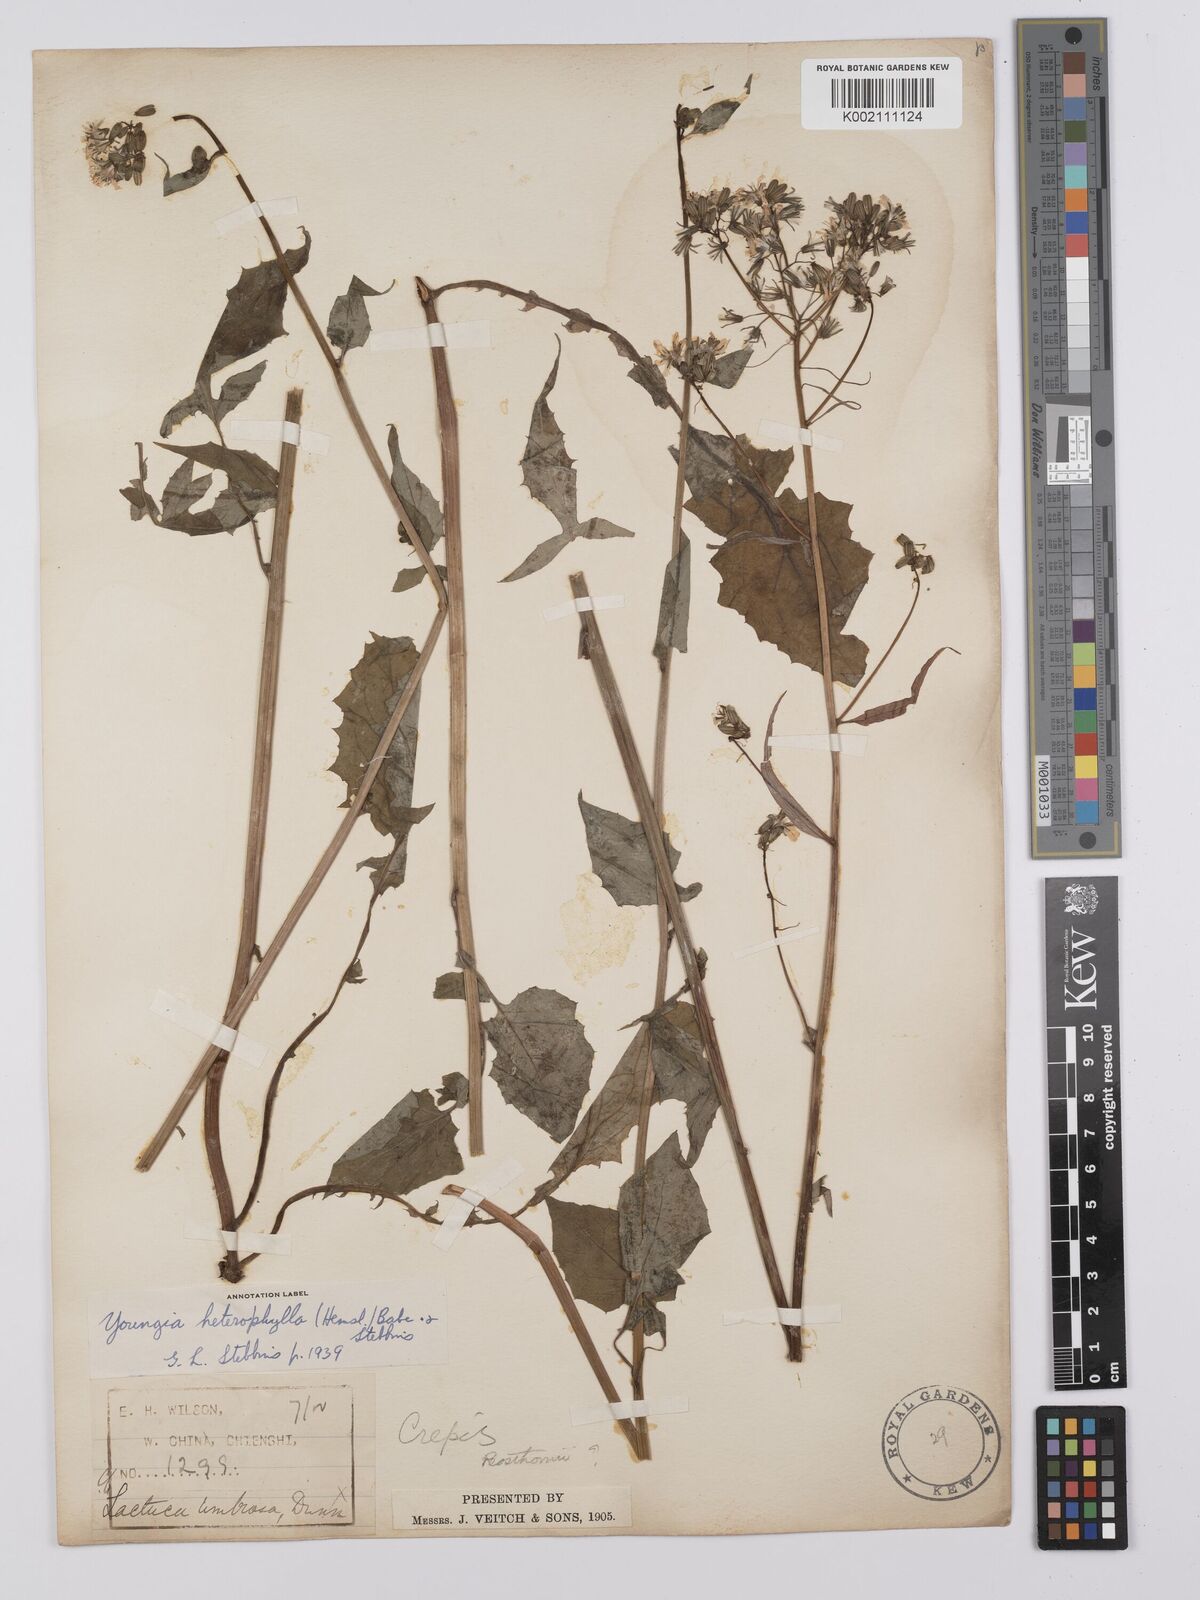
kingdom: Plantae
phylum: Tracheophyta
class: Magnoliopsida
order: Asterales
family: Asteraceae
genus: Youngia
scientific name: Youngia heterophylla
